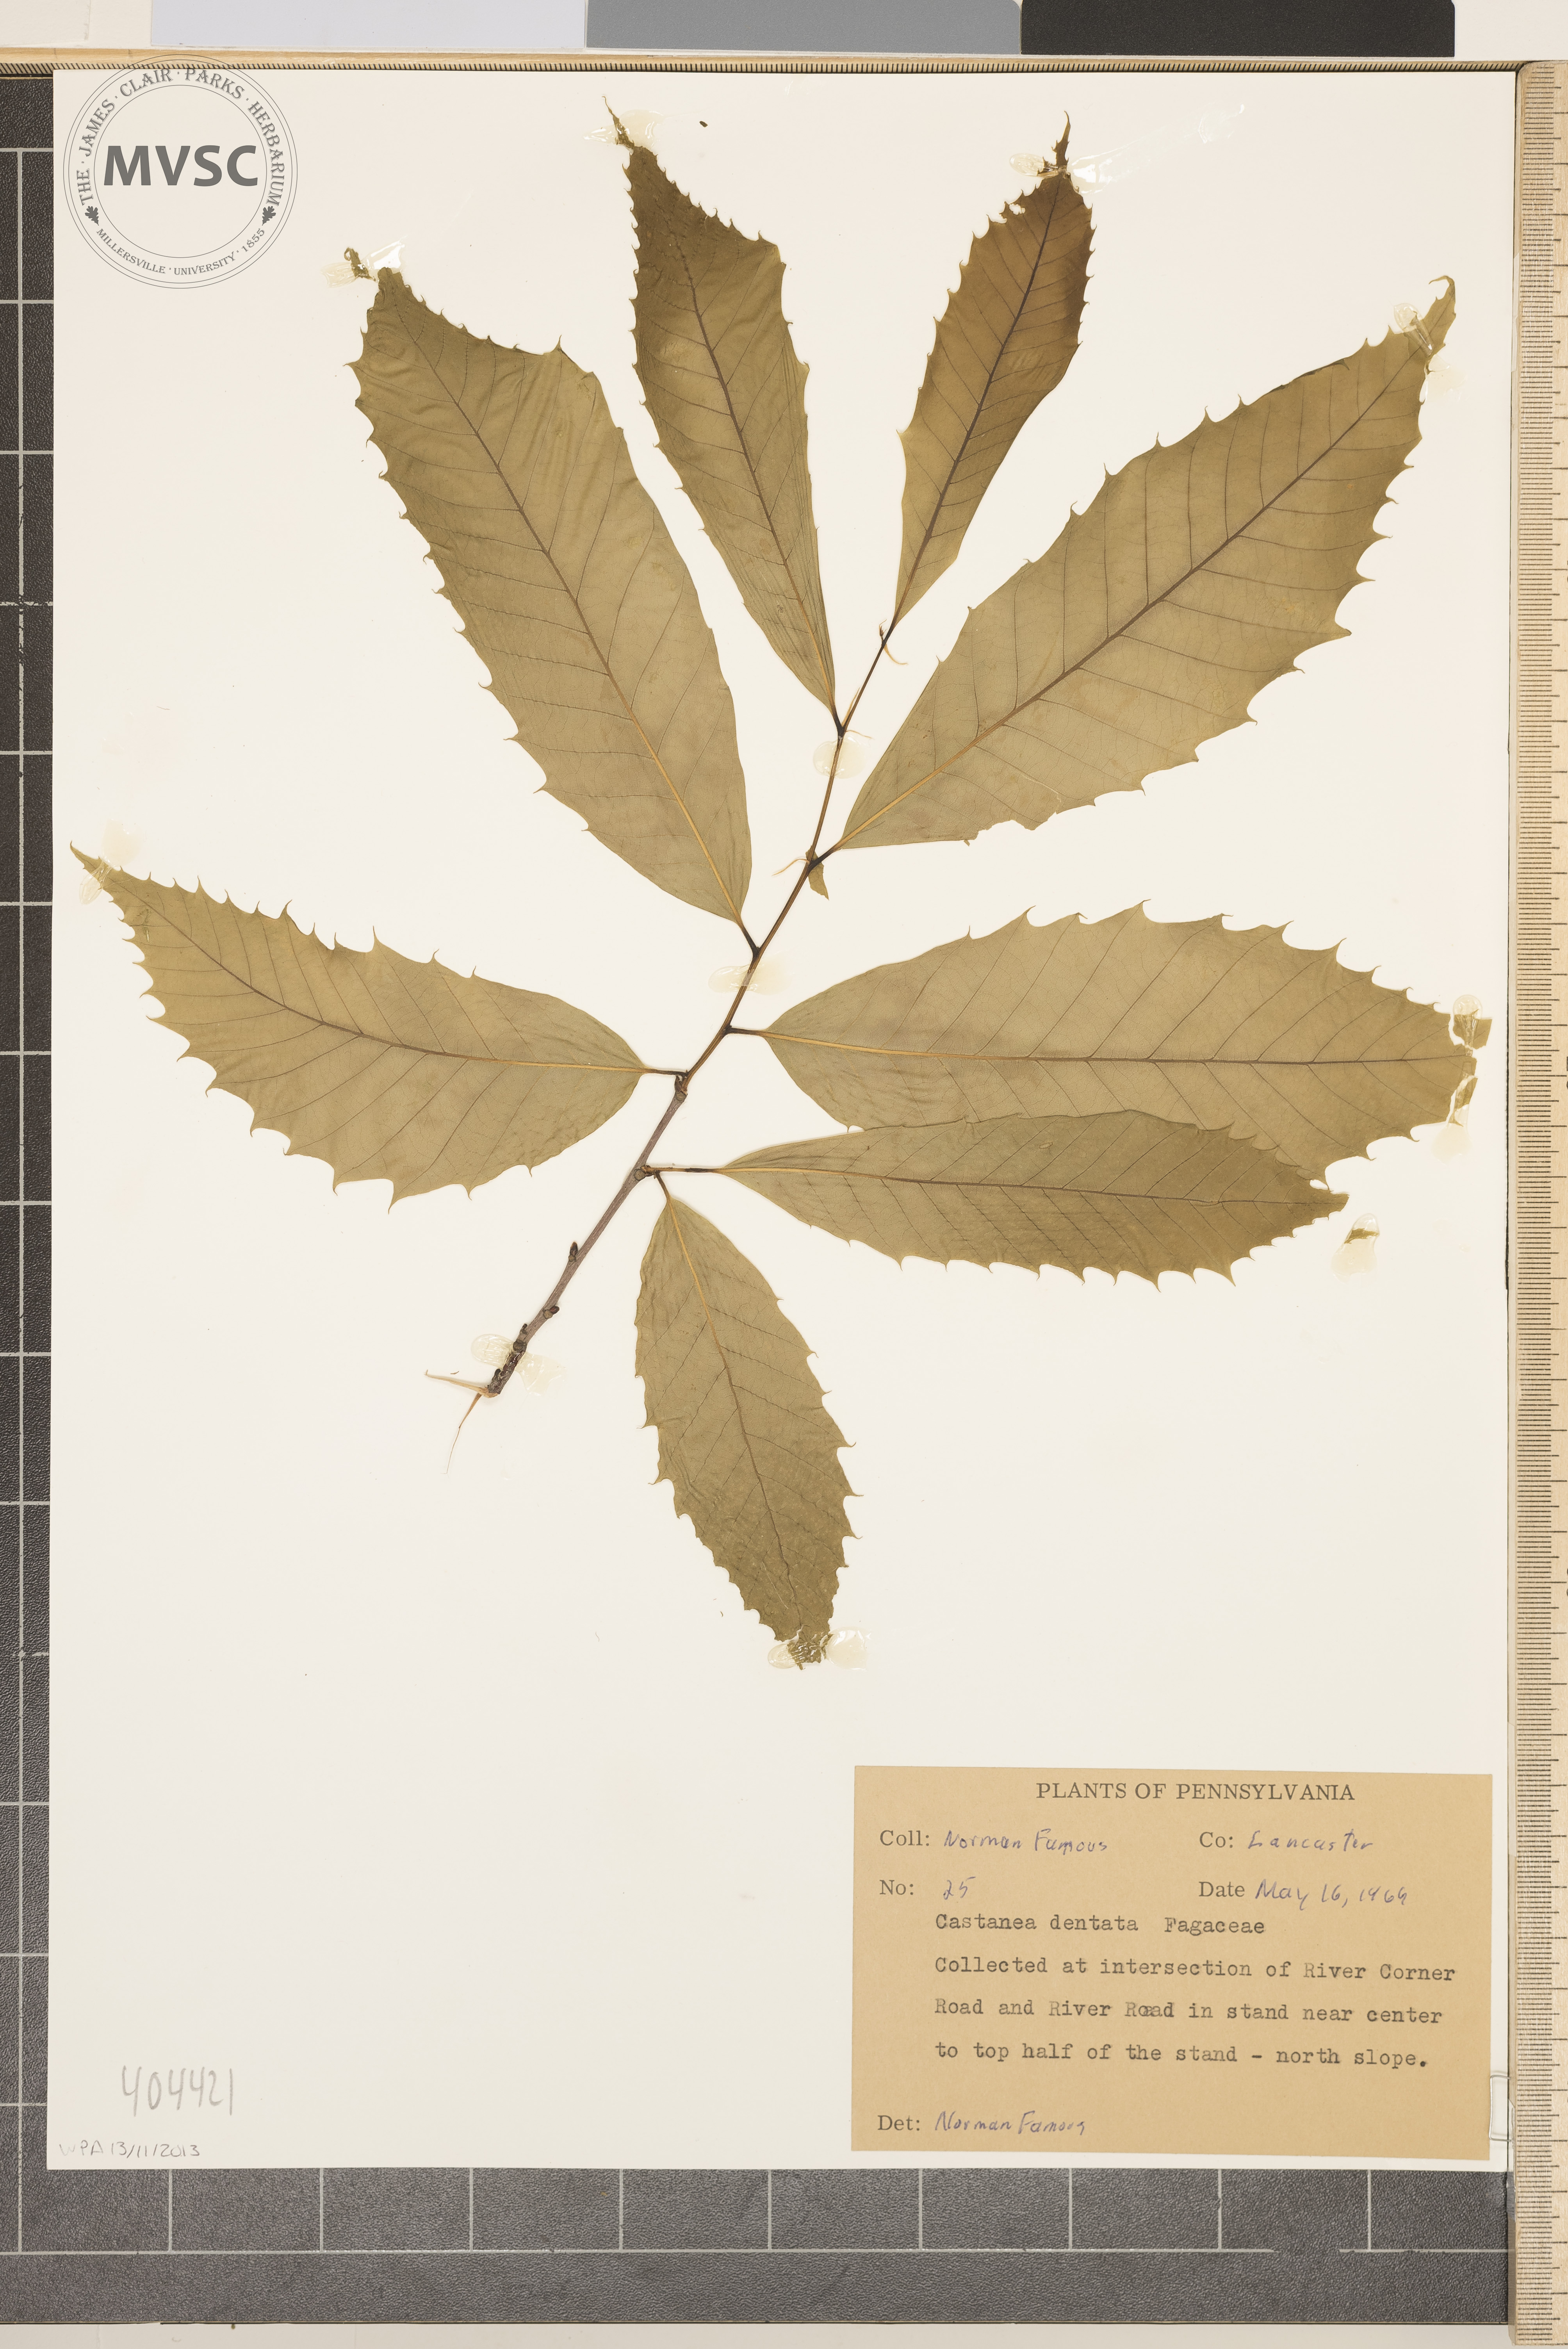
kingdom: Plantae
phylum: Tracheophyta
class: Magnoliopsida
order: Fagales
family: Fagaceae
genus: Castanea
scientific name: Castanea dentata
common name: American chestnut
